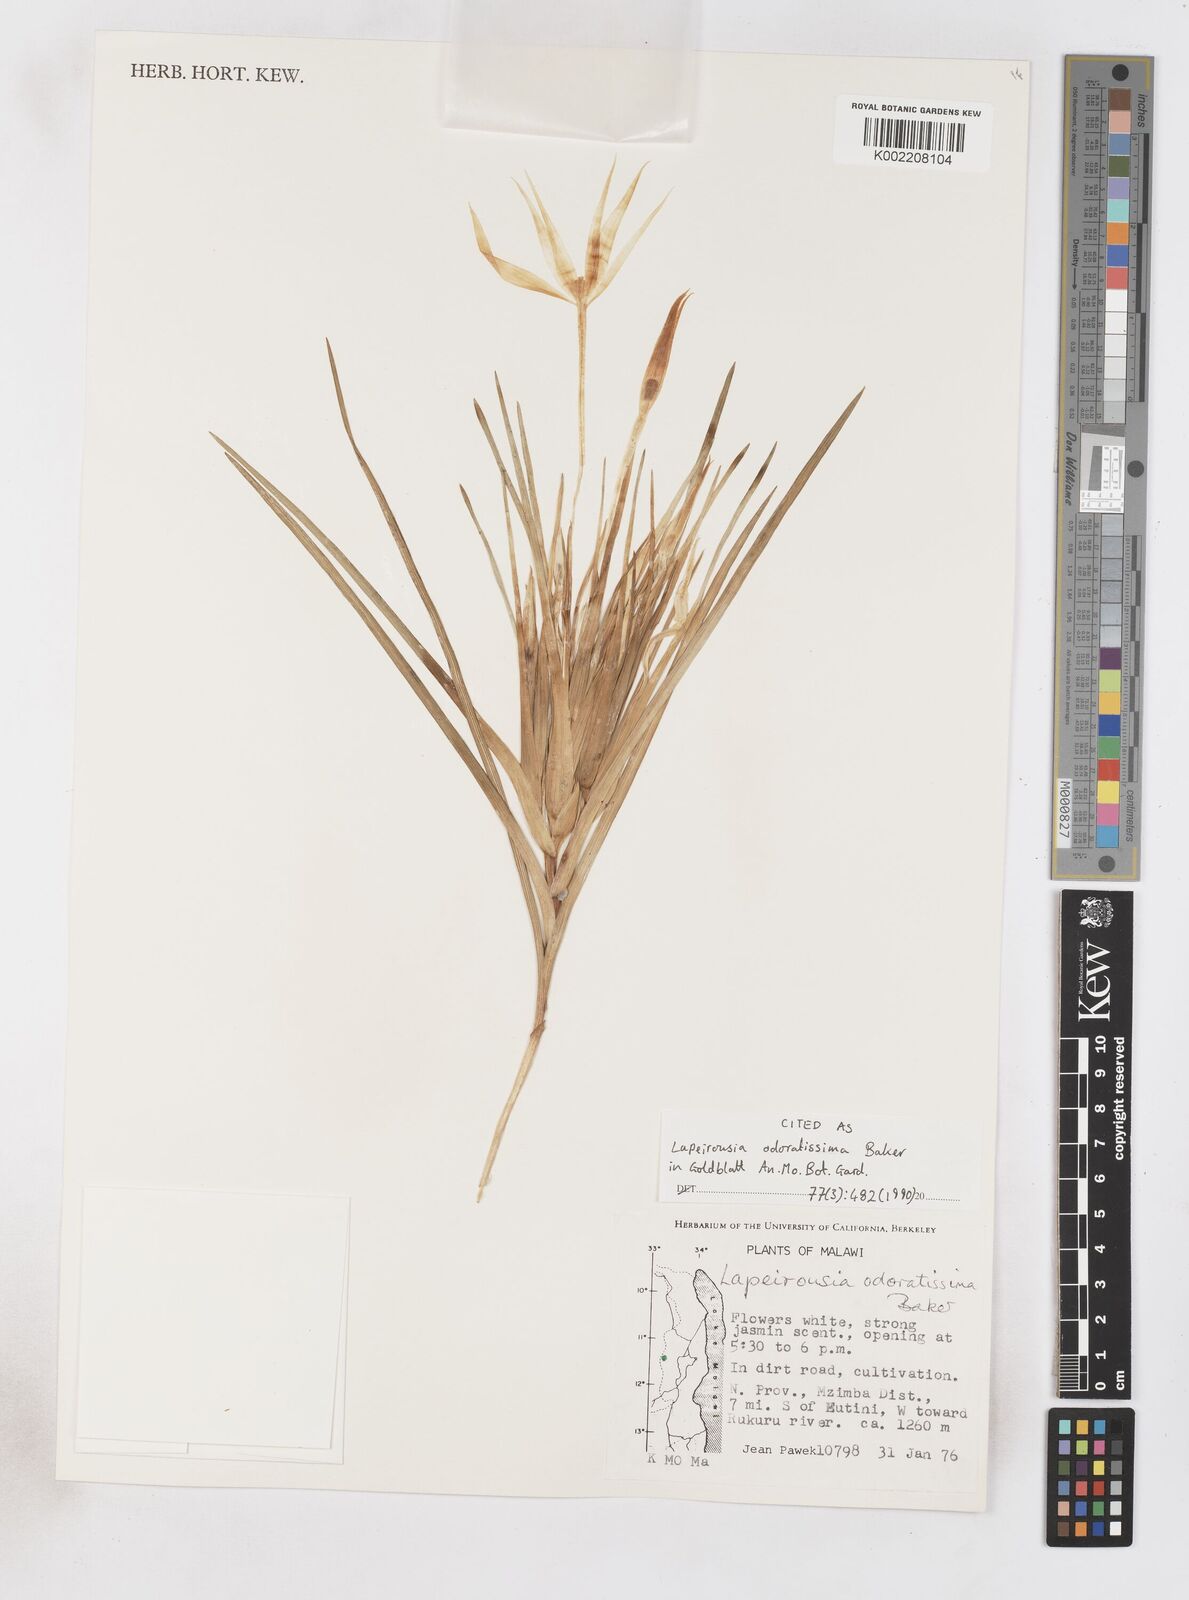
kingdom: Plantae
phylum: Tracheophyta
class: Liliopsida
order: Asparagales
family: Iridaceae
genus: Lapeirousia
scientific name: Lapeirousia odoratissima
